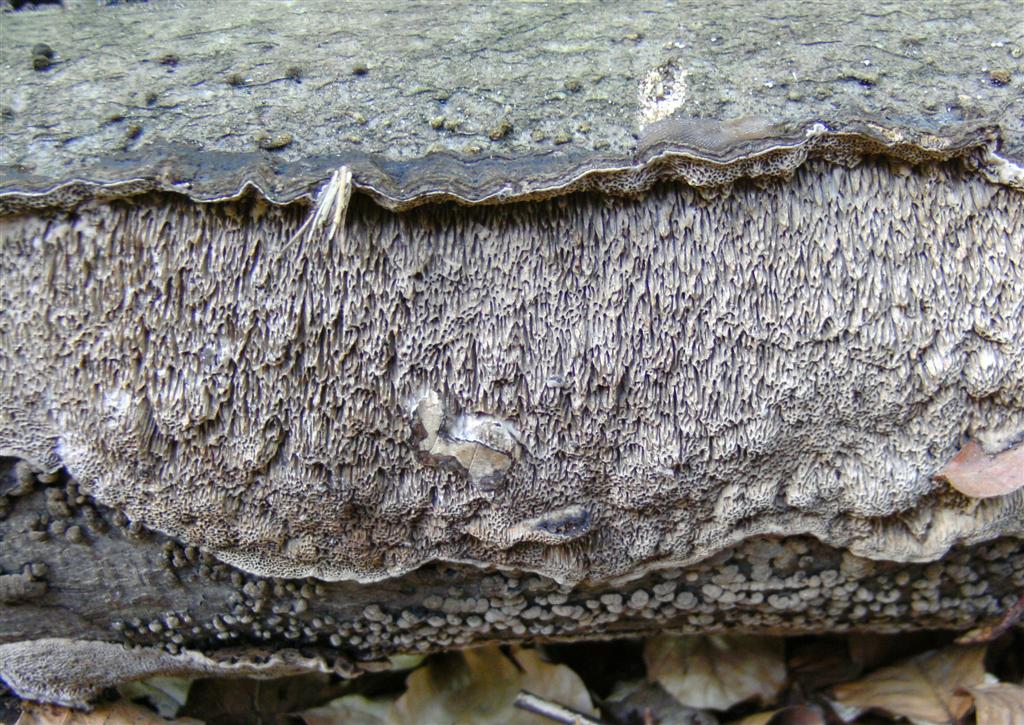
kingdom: Fungi
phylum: Basidiomycota
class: Agaricomycetes
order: Polyporales
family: Polyporaceae
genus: Podofomes
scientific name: Podofomes mollis
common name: blød begporesvamp
